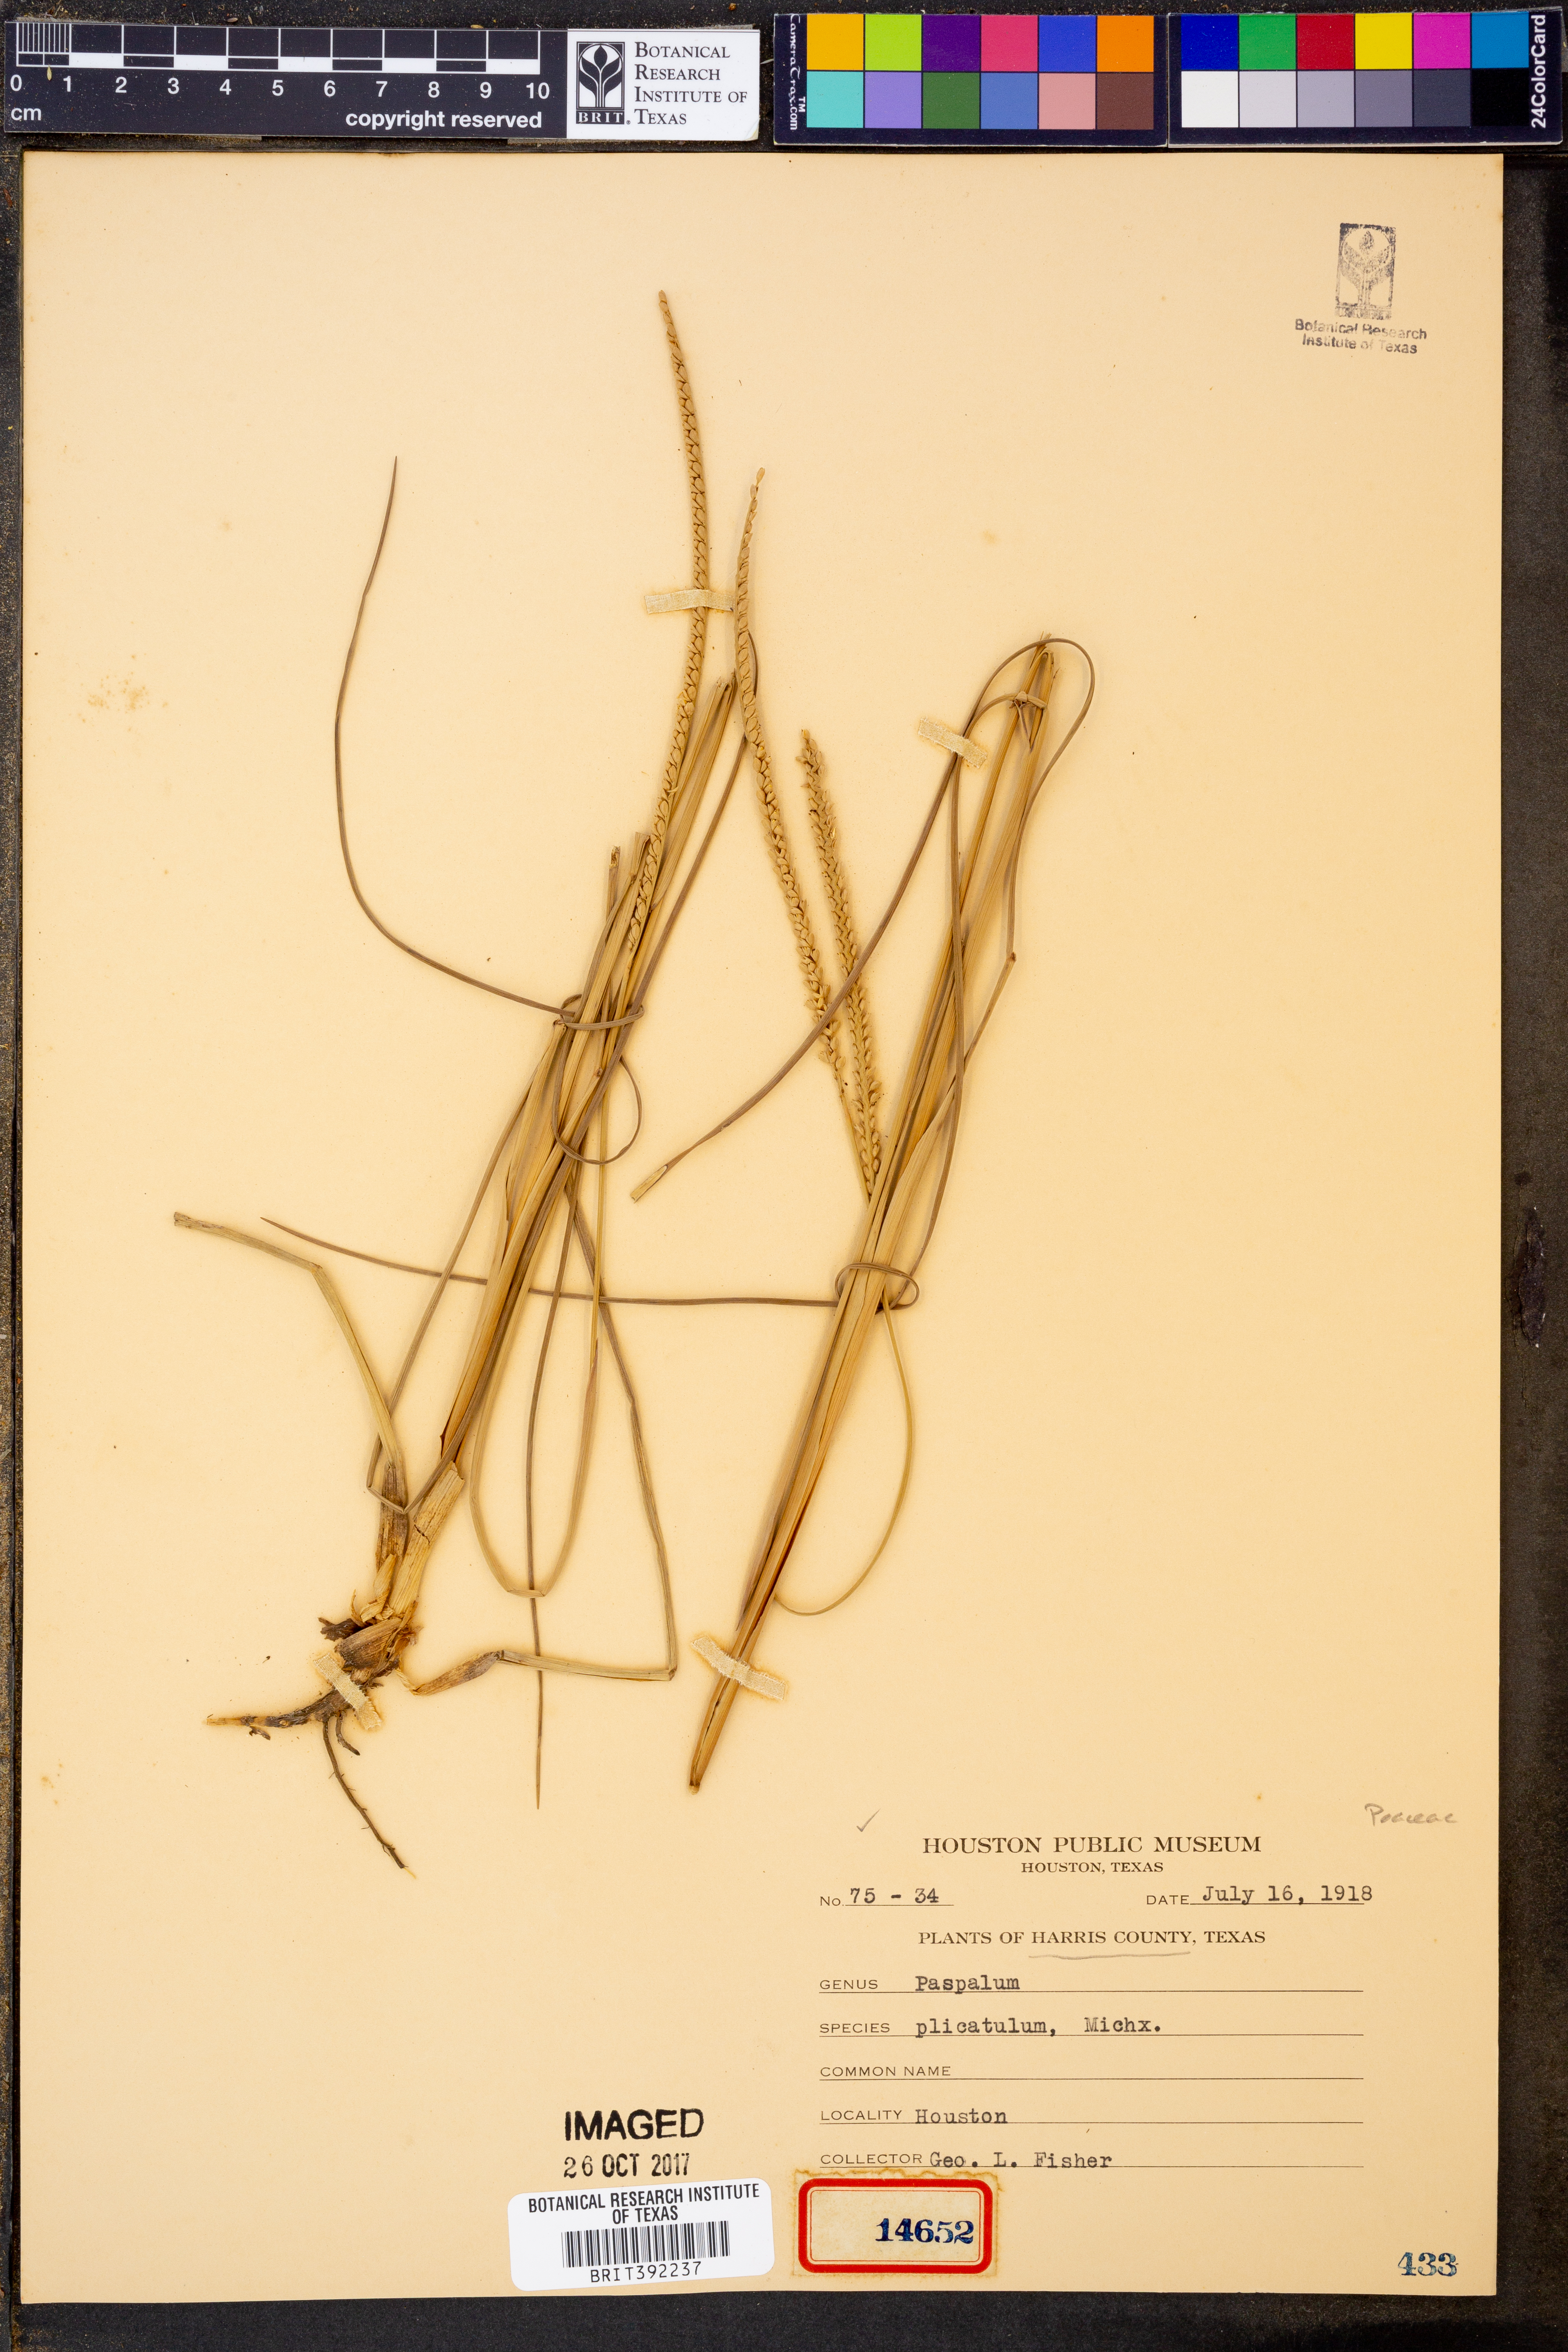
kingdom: Plantae
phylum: Tracheophyta
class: Liliopsida
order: Poales
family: Poaceae
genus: Paspalum
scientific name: Paspalum plicatulum
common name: Top paspalum
